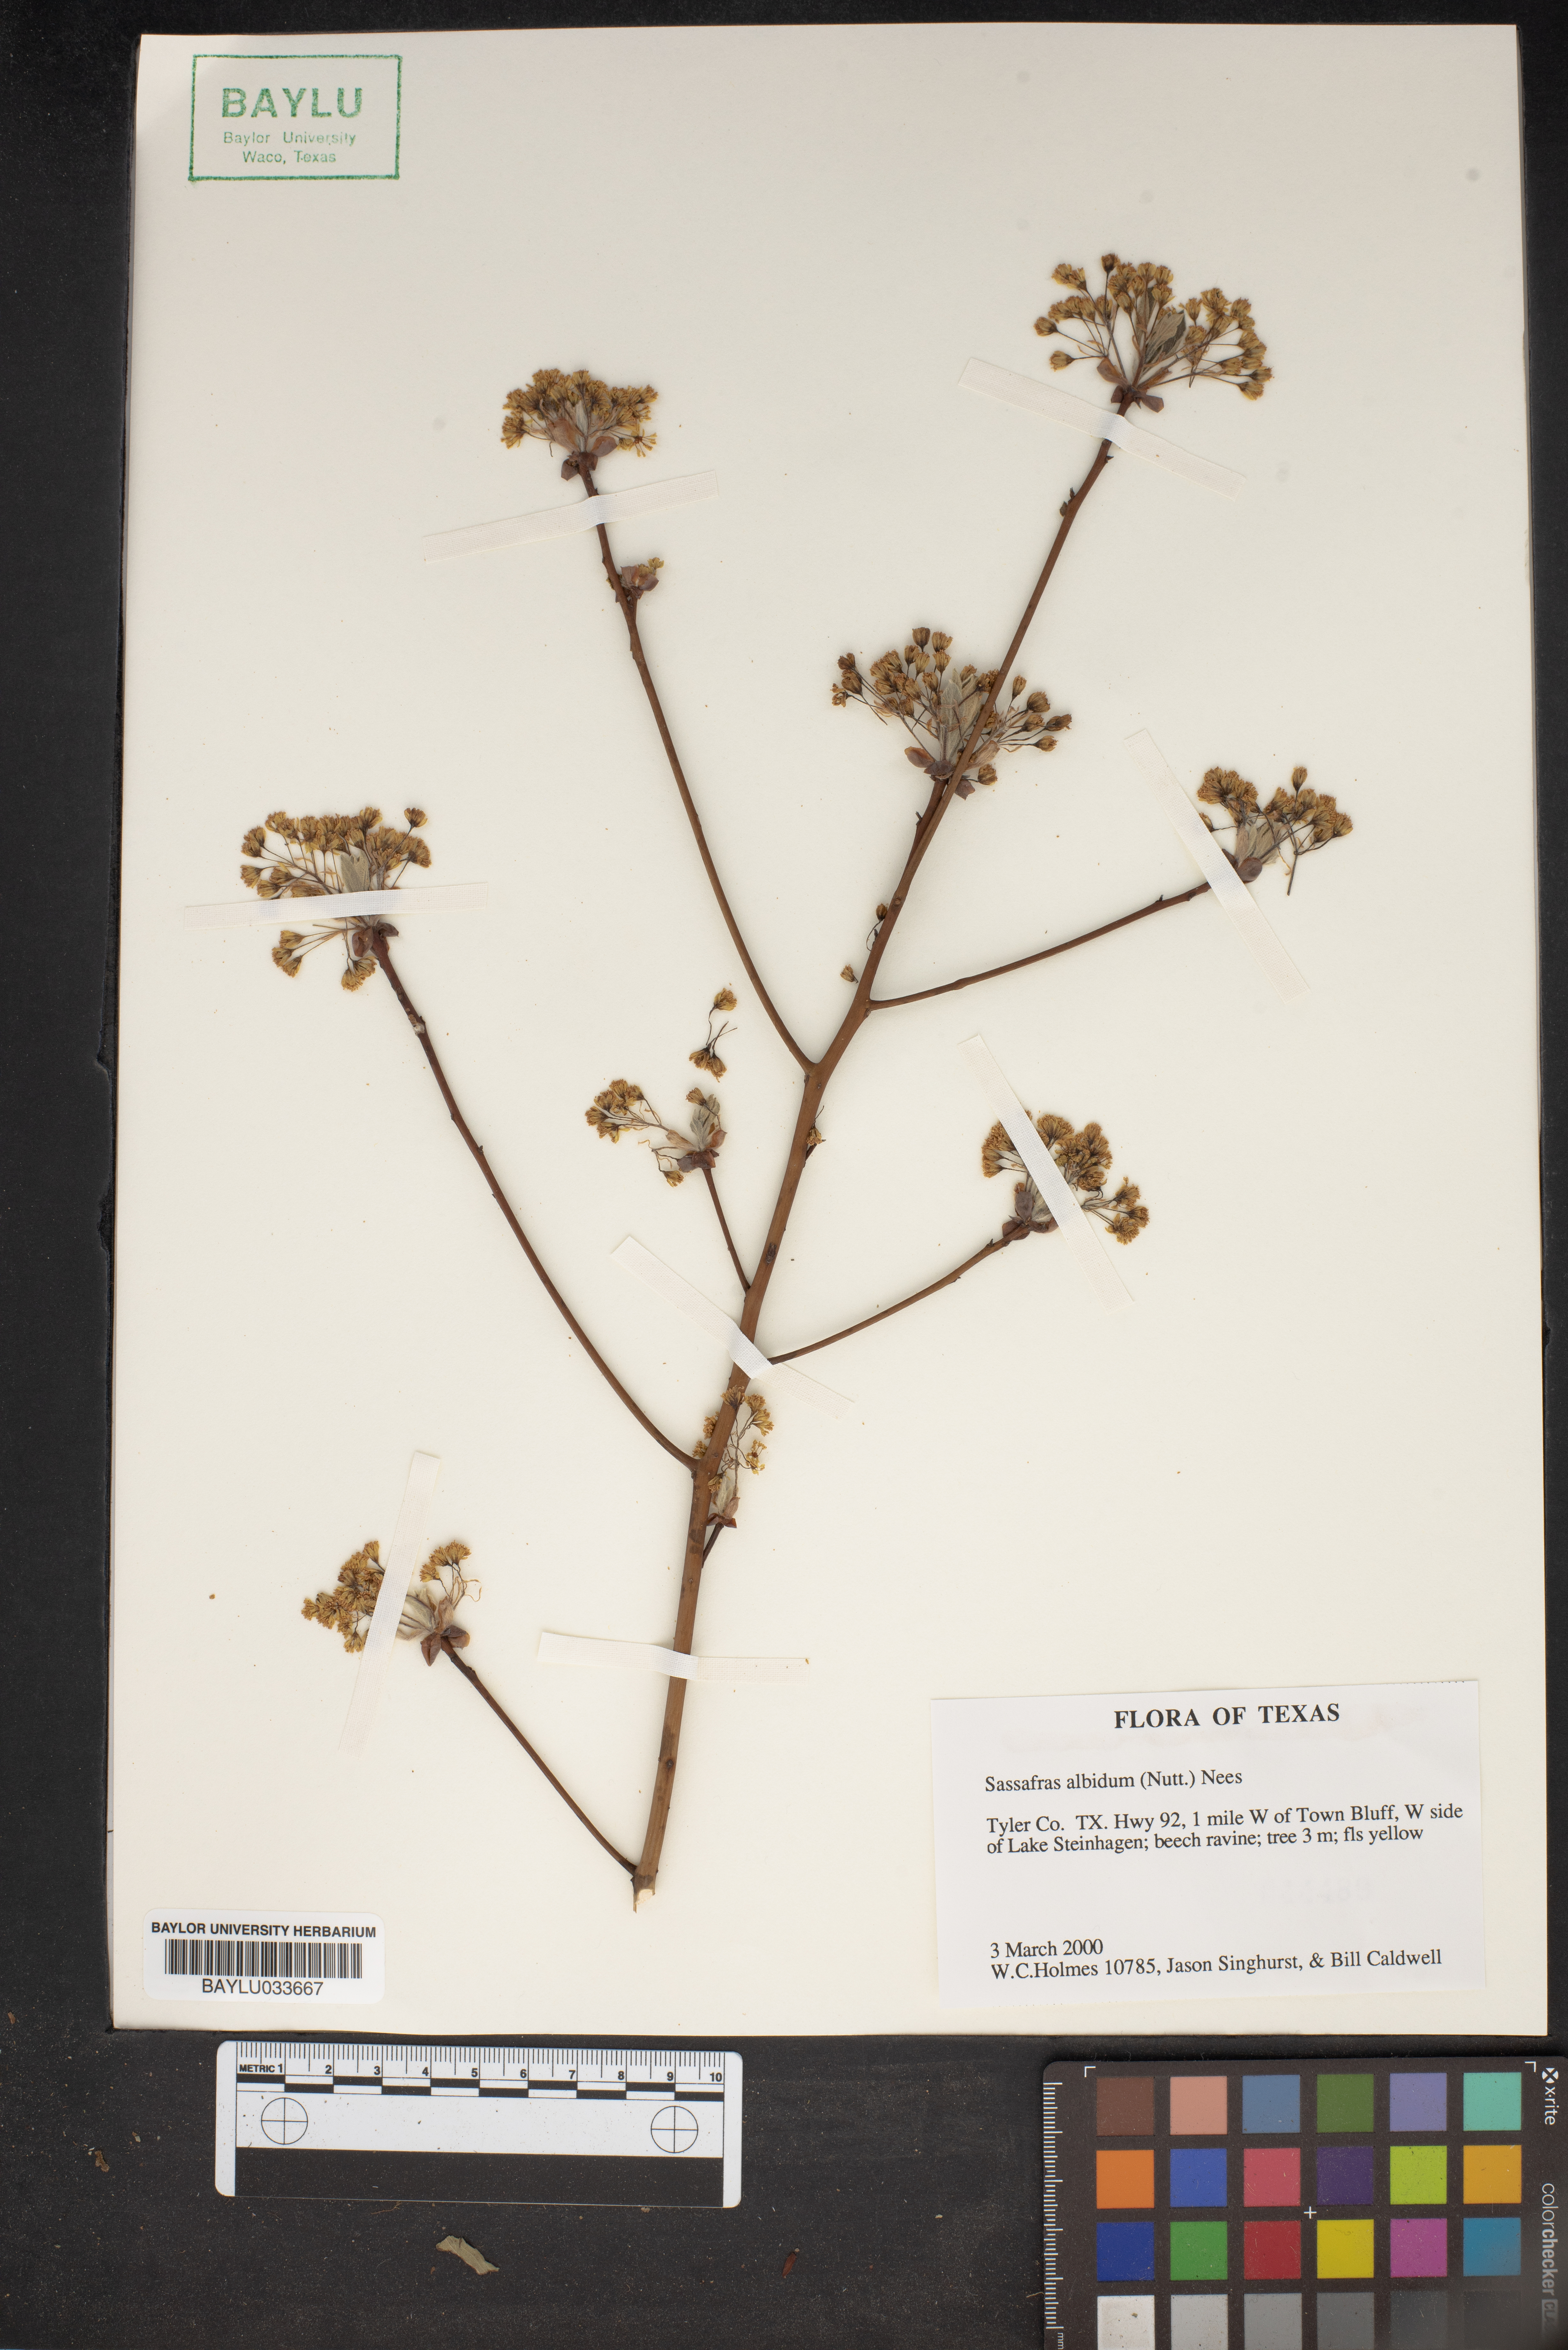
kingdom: Plantae
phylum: Tracheophyta
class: Magnoliopsida
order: Laurales
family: Lauraceae
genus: Sassafras
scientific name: Sassafras albidum
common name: Sassafras
